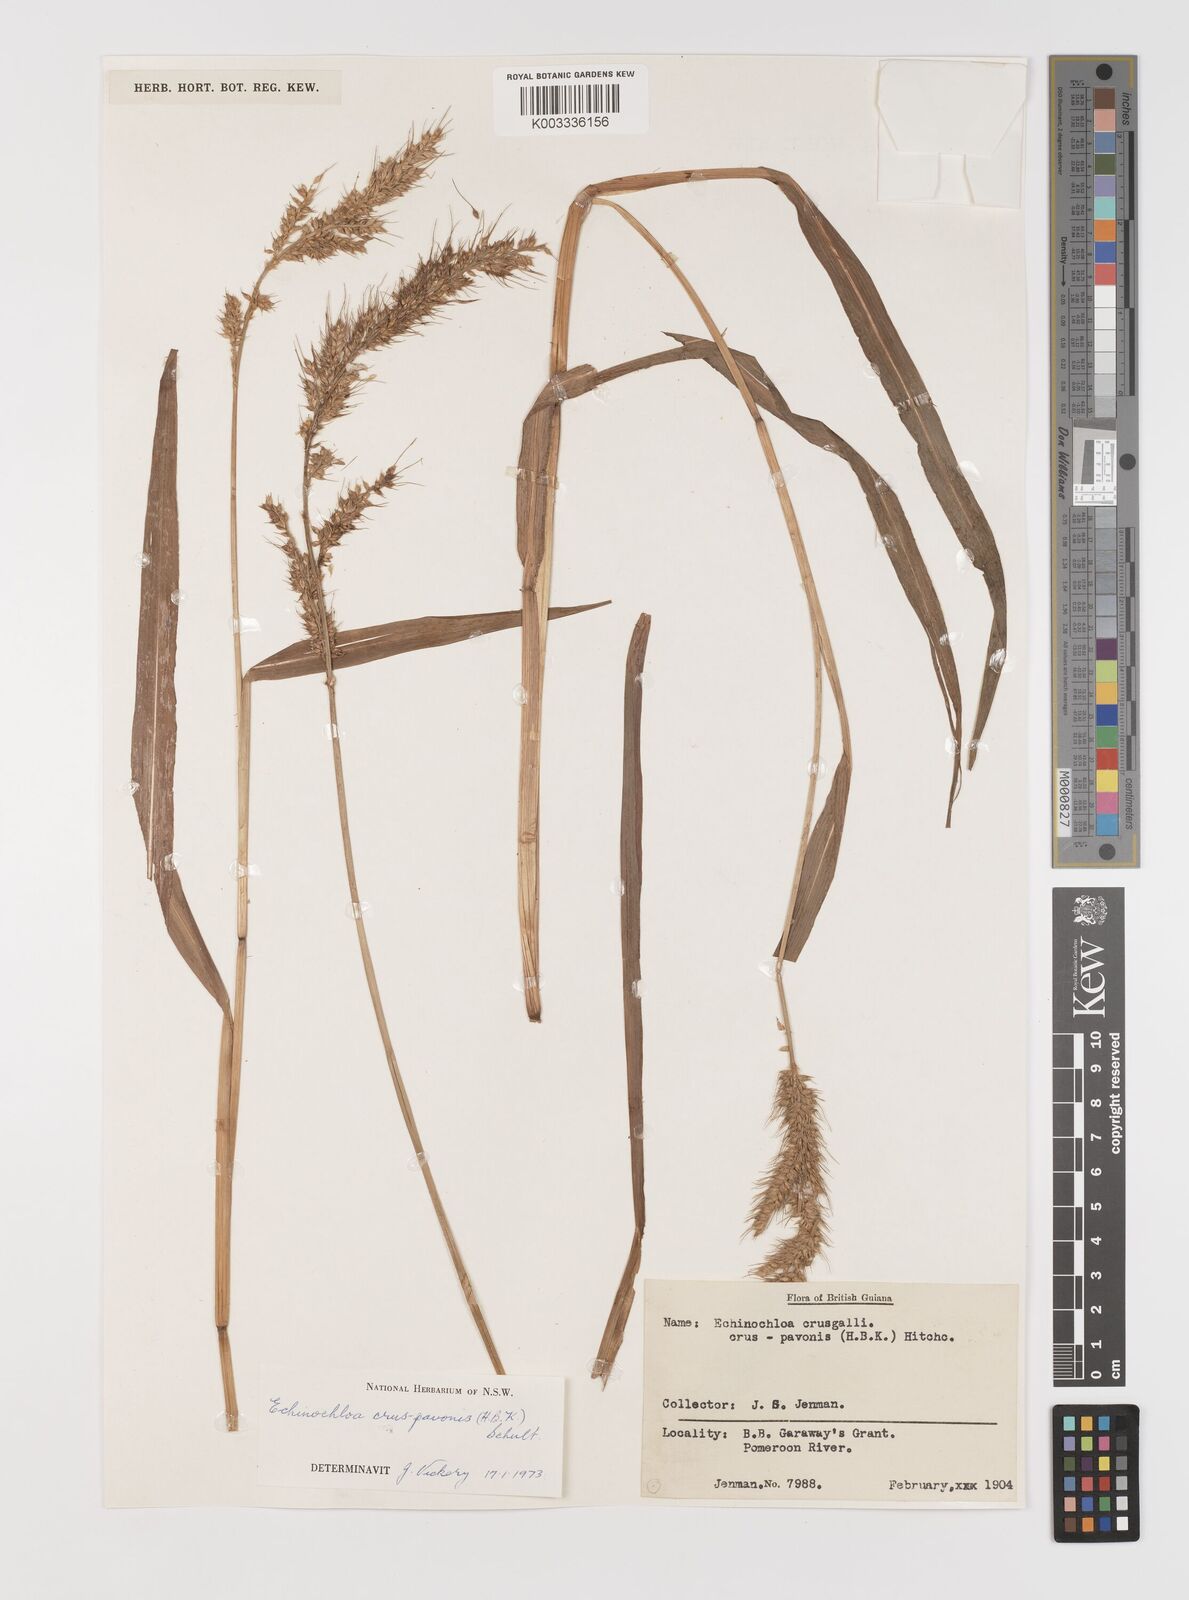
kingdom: Plantae
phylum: Tracheophyta
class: Liliopsida
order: Poales
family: Poaceae
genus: Echinochloa
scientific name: Echinochloa crus-pavonis
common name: Gulf cockspur grass
